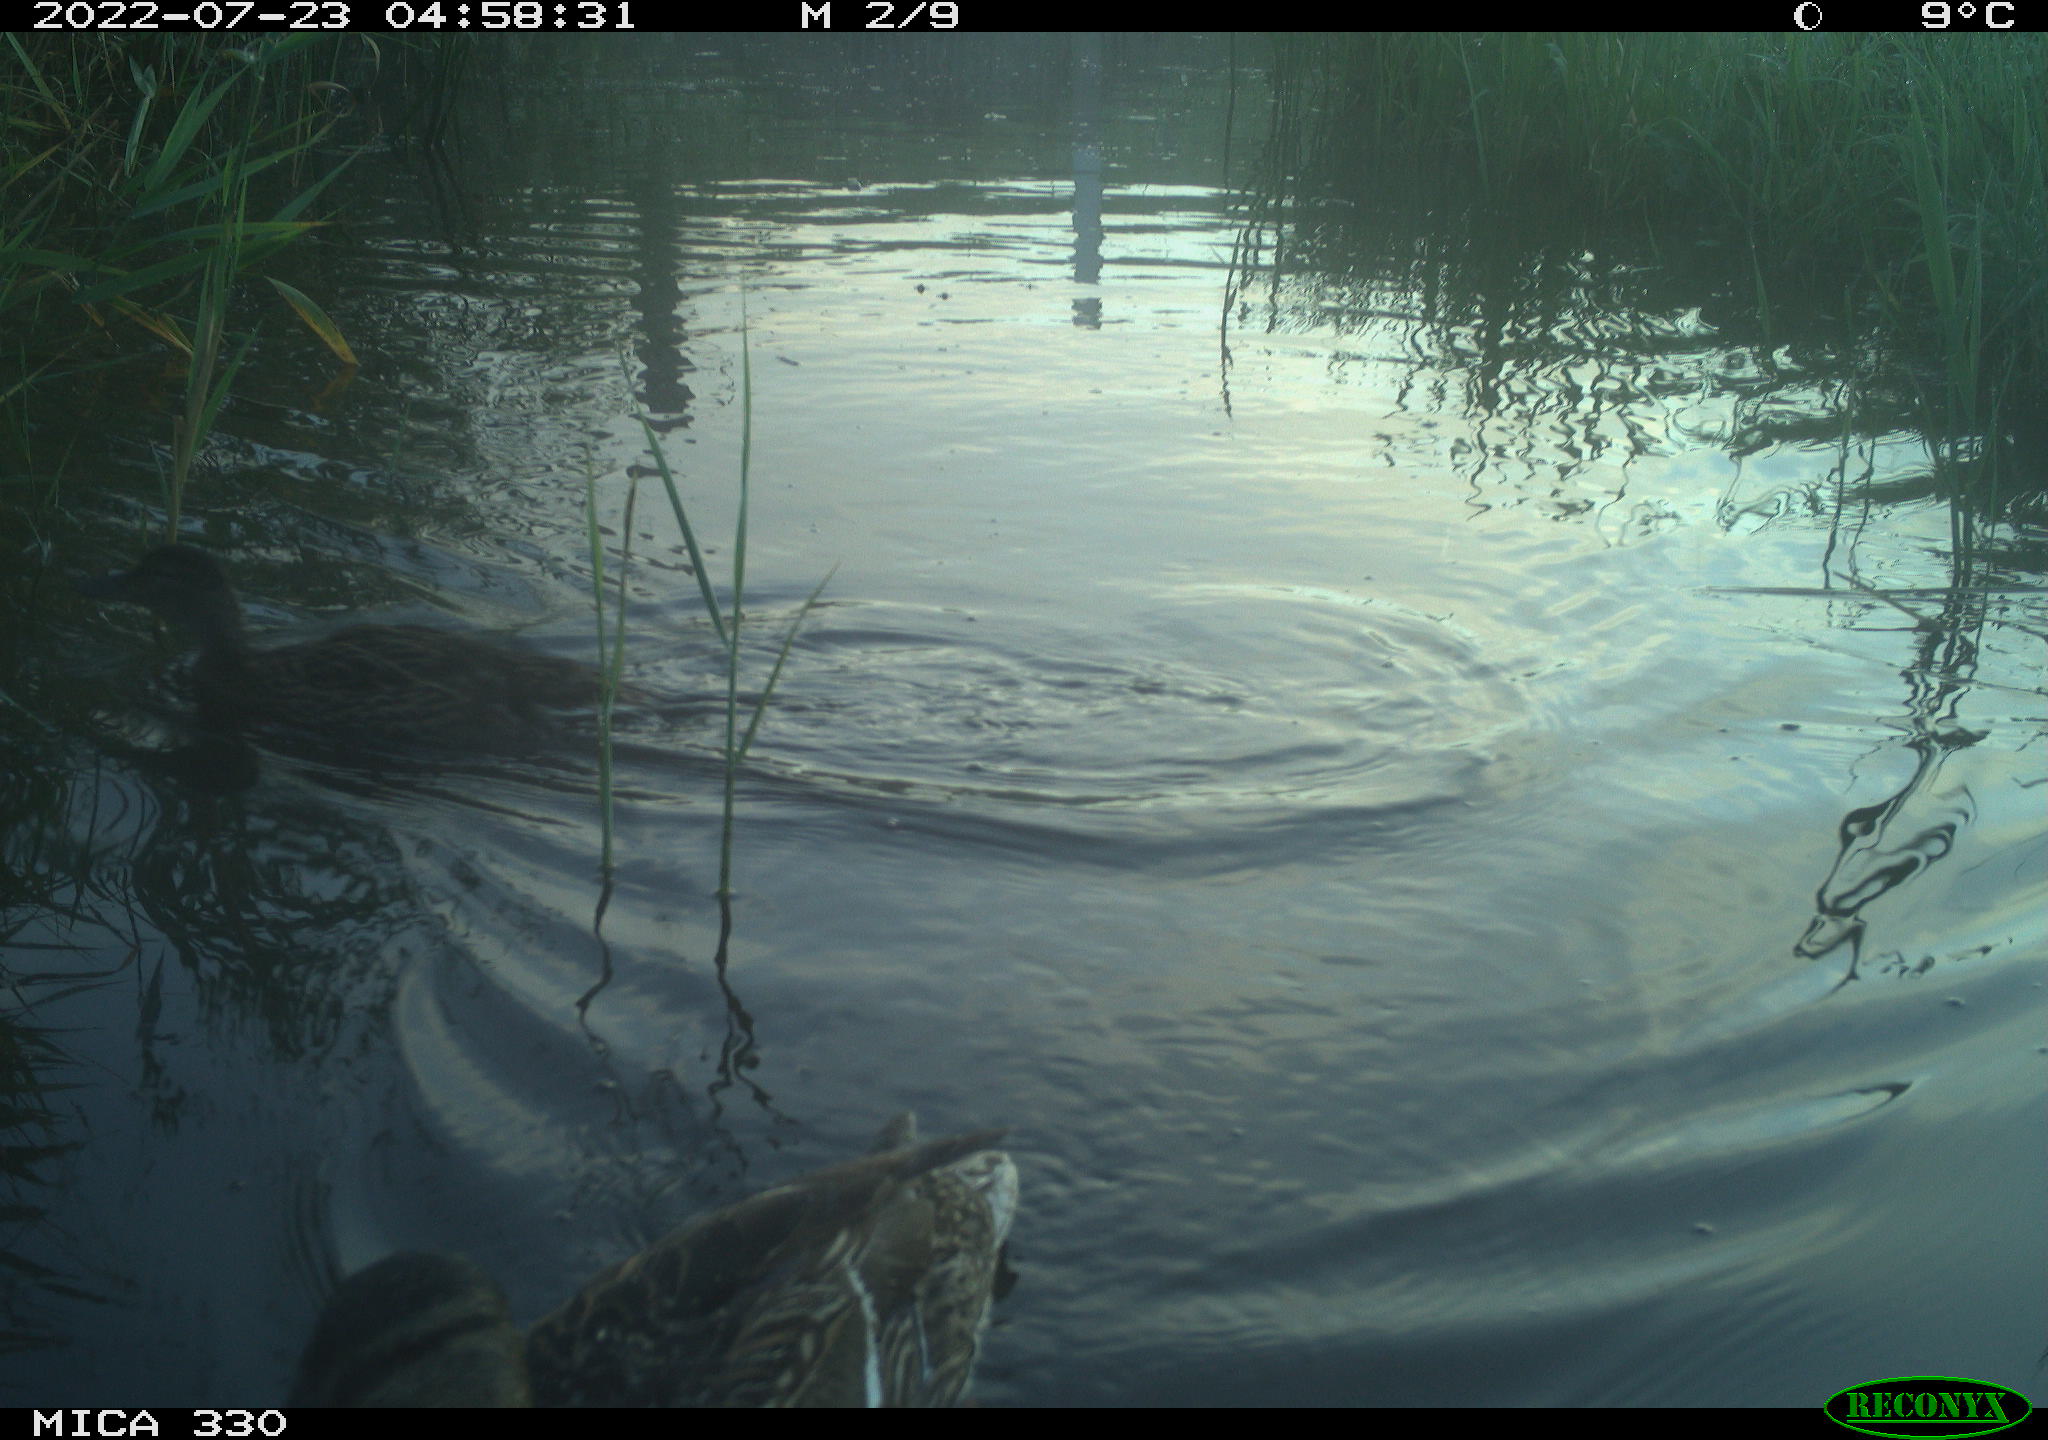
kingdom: Animalia
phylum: Chordata
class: Aves
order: Anseriformes
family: Anatidae
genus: Mareca
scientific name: Mareca strepera
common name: Gadwall
